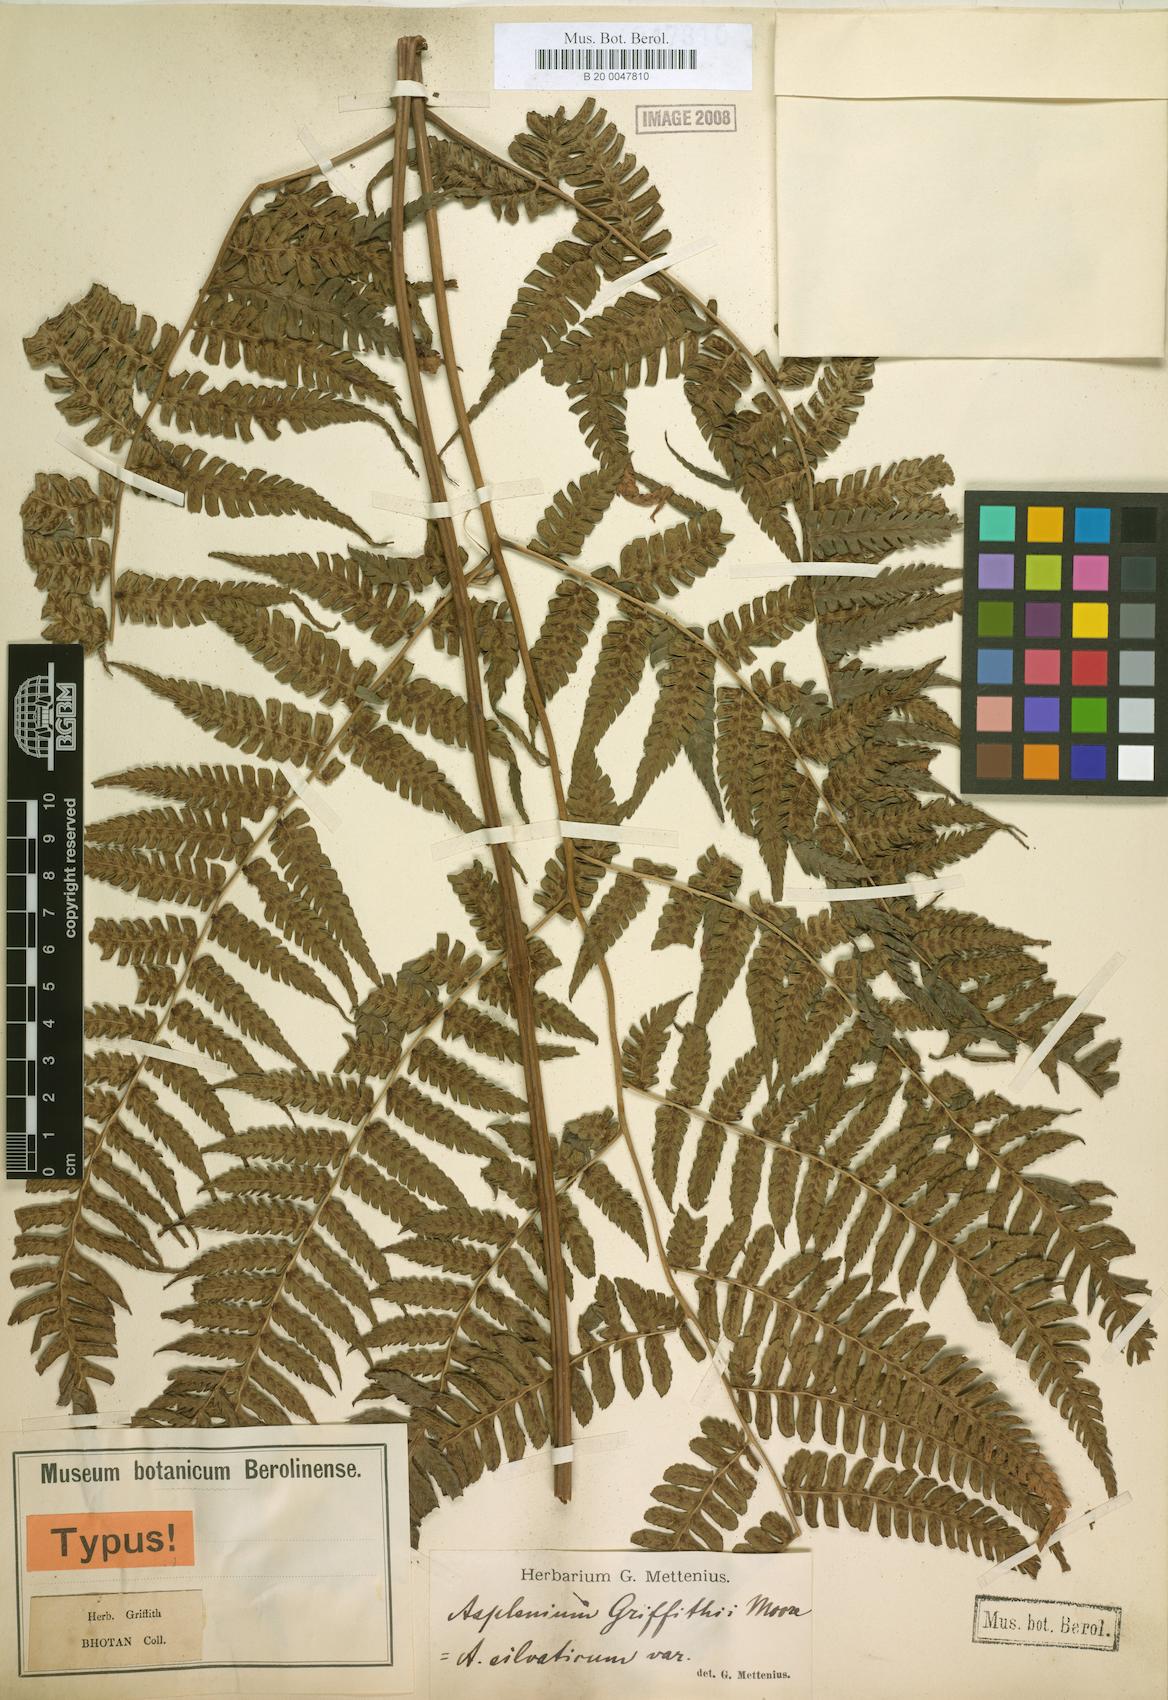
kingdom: Plantae
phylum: Tracheophyta
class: Polypodiopsida
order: Polypodiales
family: Athyriaceae
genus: Diplazium
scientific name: Diplazium griffithii
